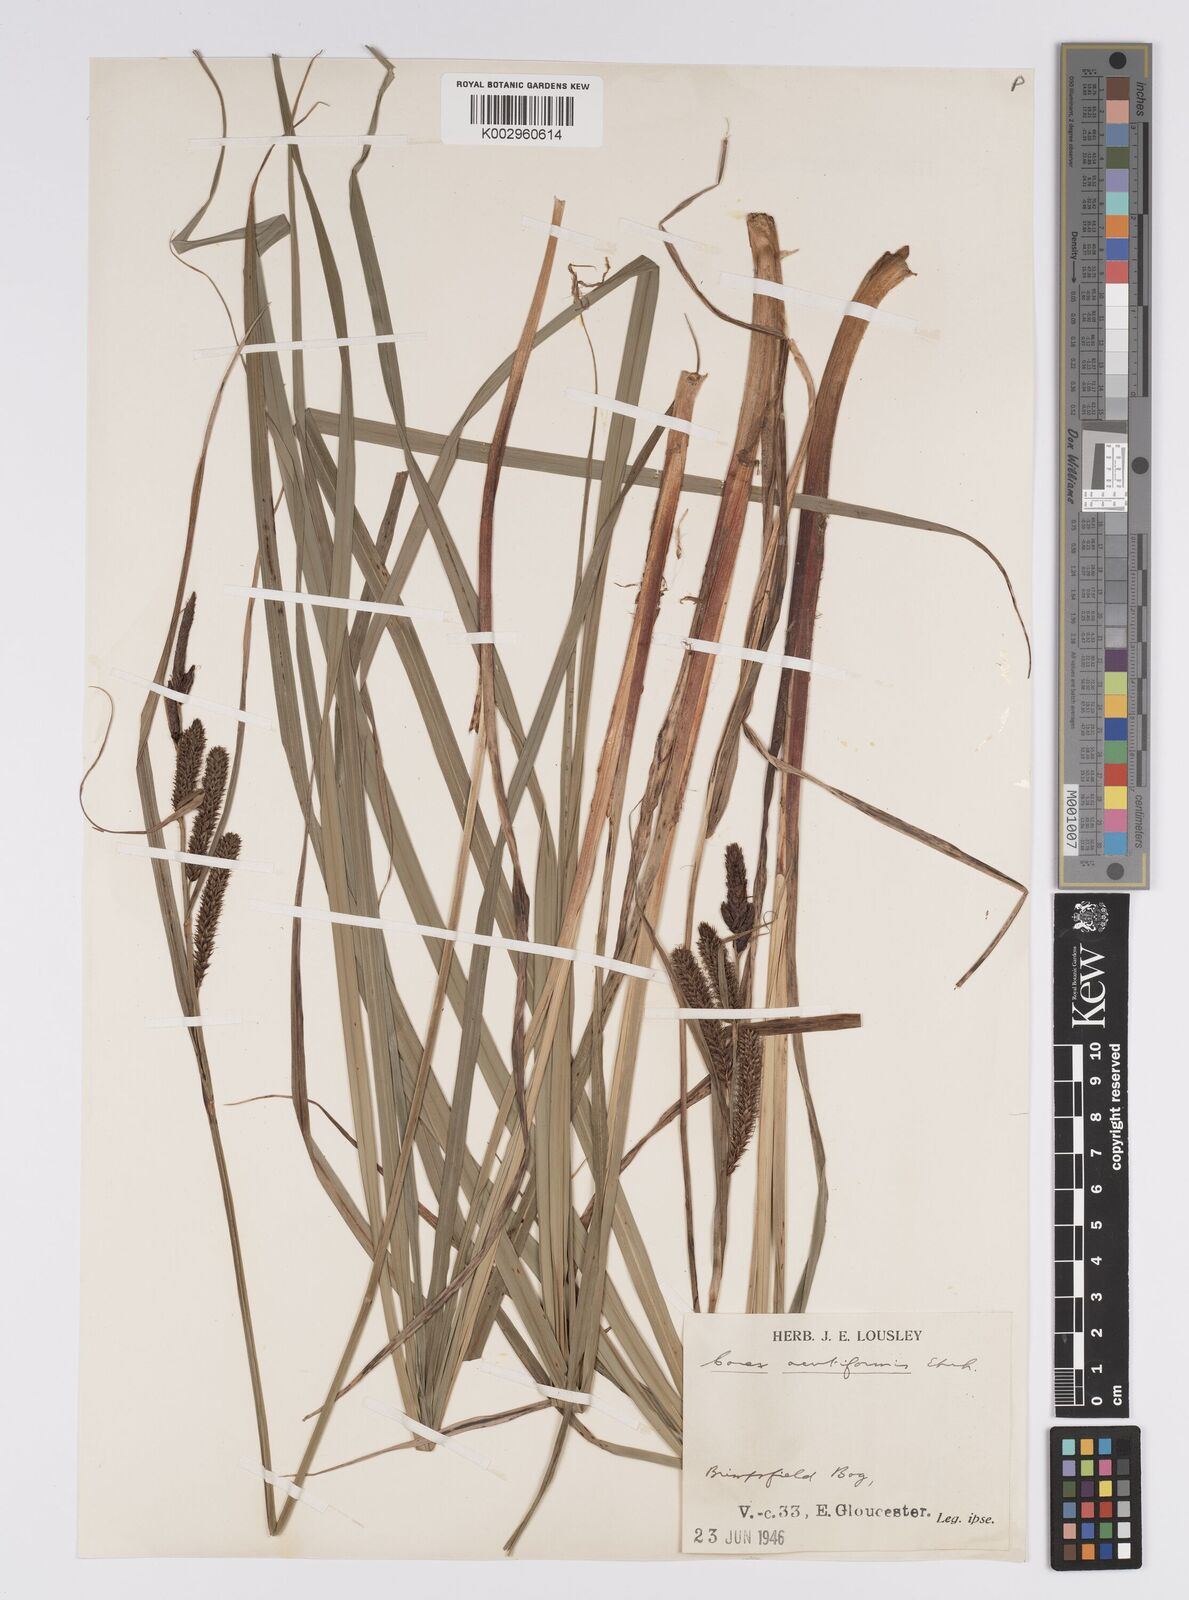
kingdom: Plantae
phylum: Tracheophyta
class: Liliopsida
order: Poales
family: Cyperaceae
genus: Carex
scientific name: Carex acutiformis
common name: Lesser pond-sedge
